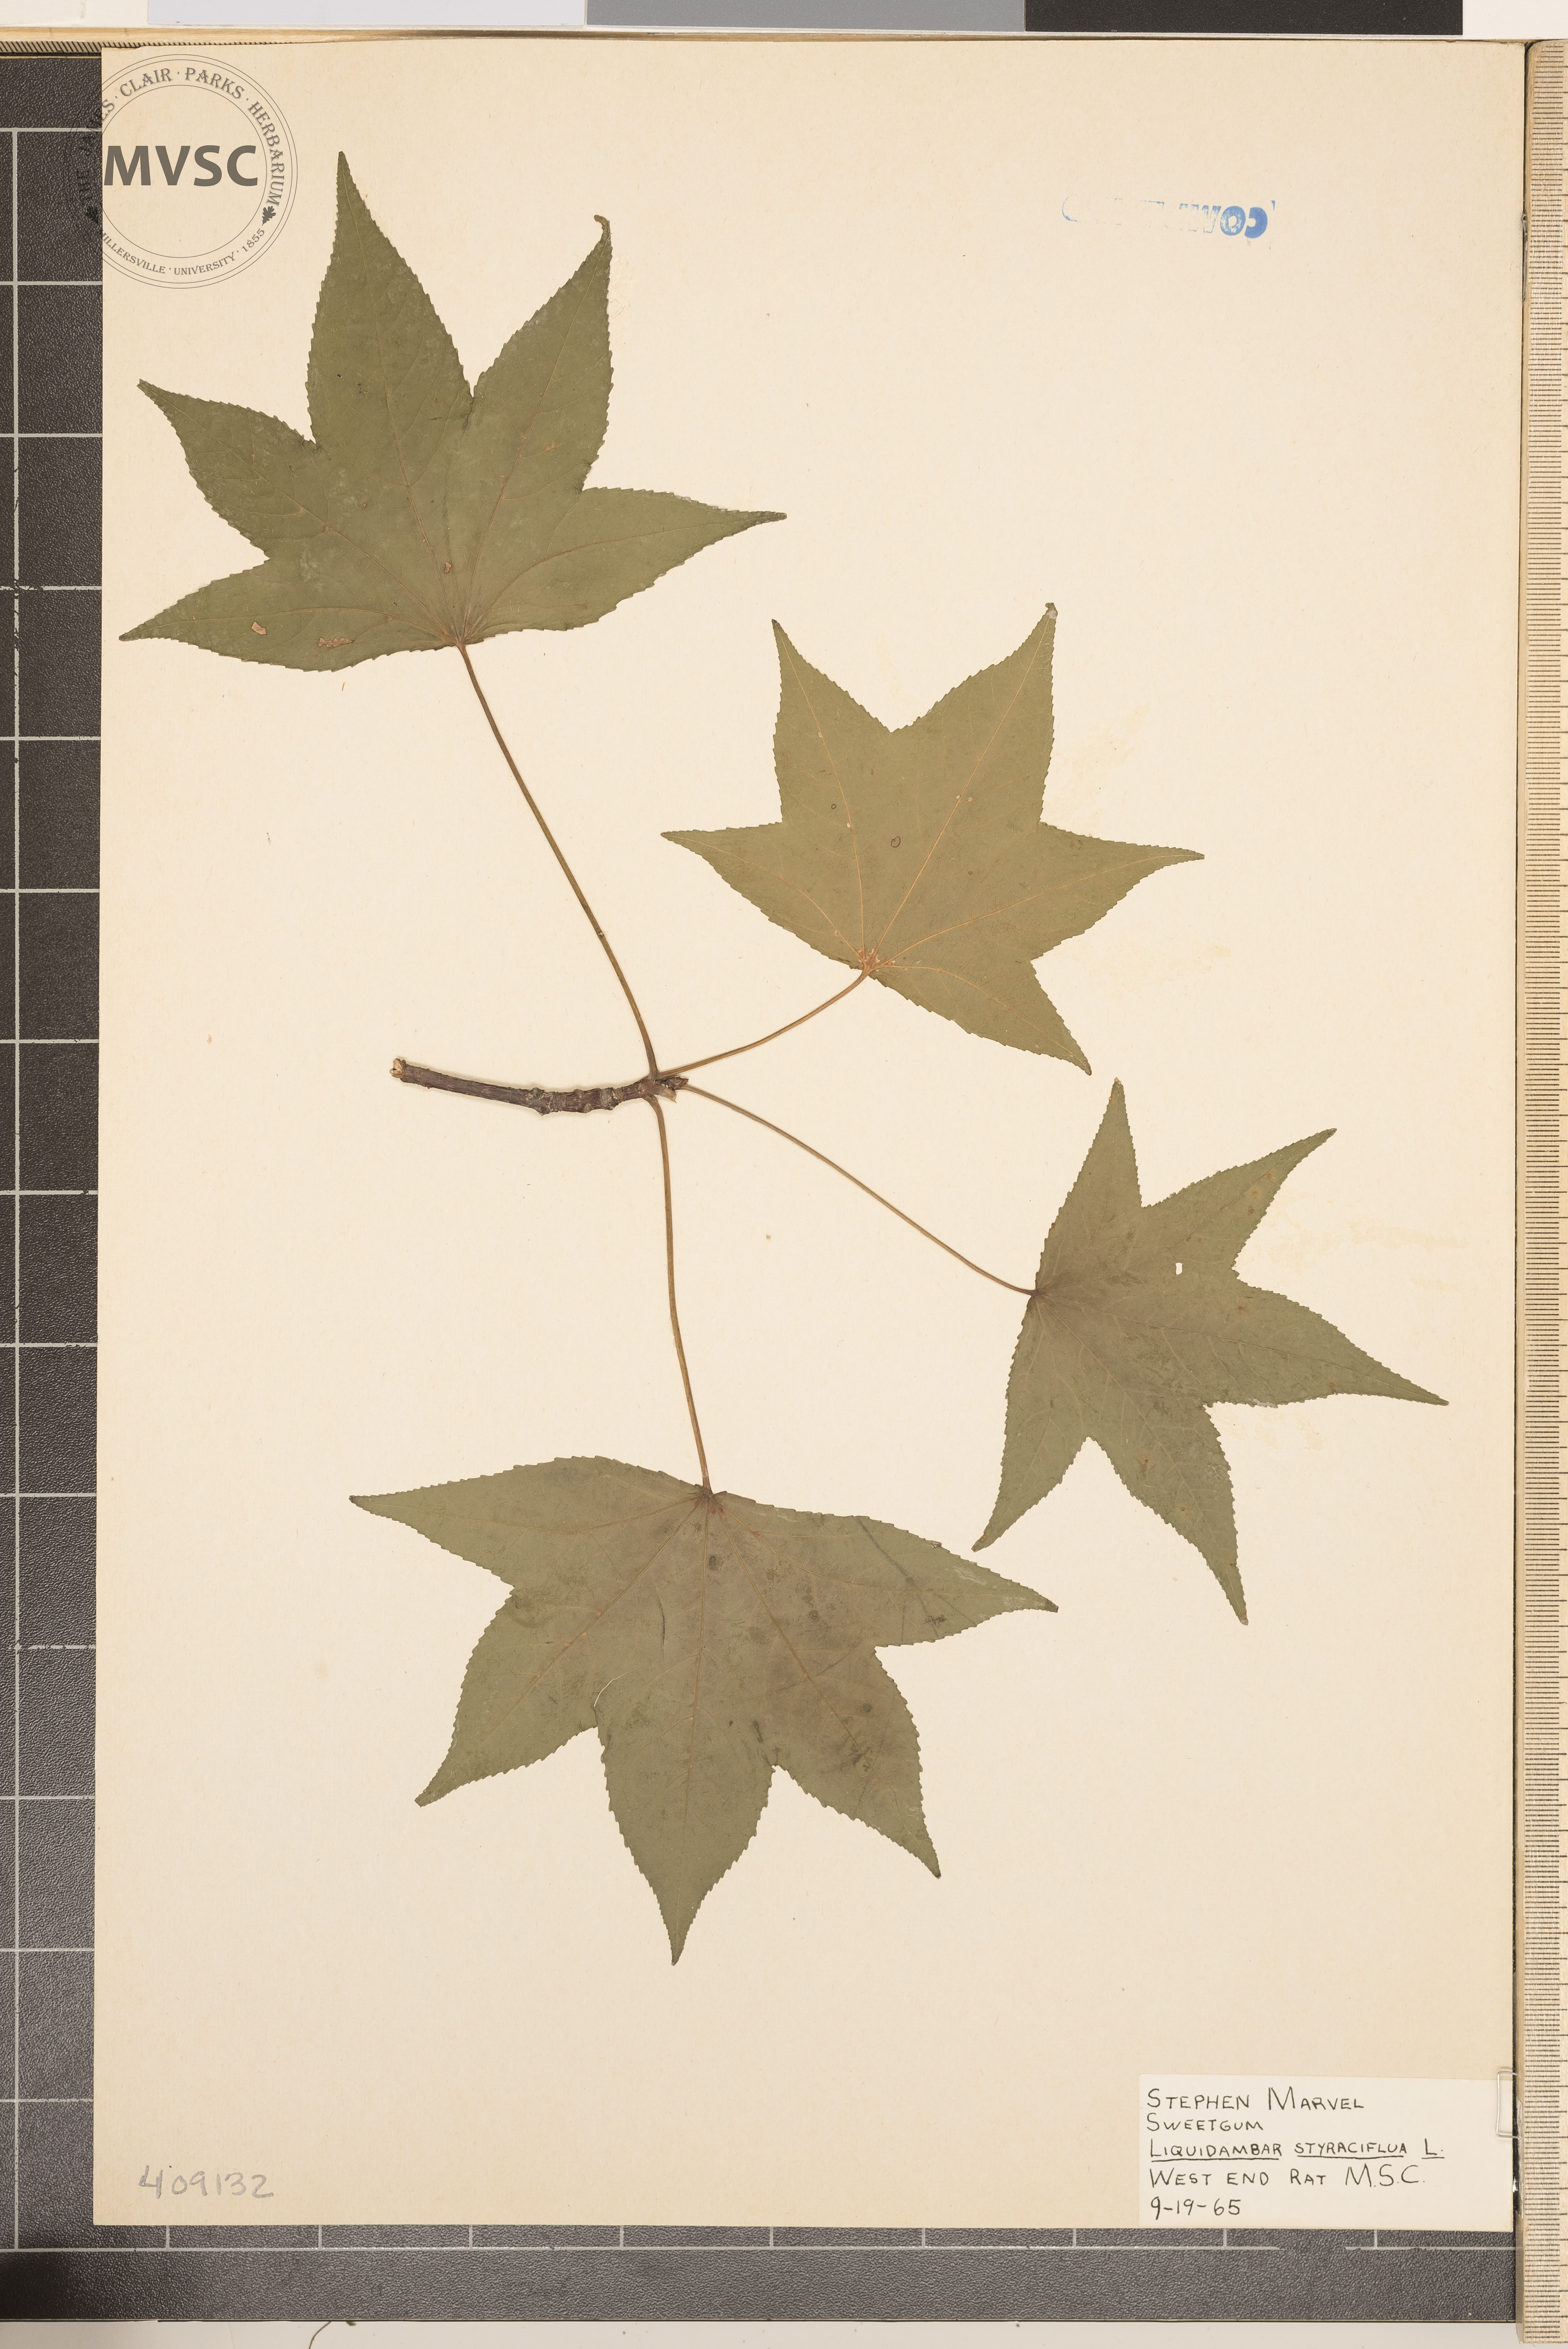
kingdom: Plantae
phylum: Tracheophyta
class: Magnoliopsida
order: Saxifragales
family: Altingiaceae
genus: Liquidambar
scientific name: Liquidambar styraciflua
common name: Sweet gum
